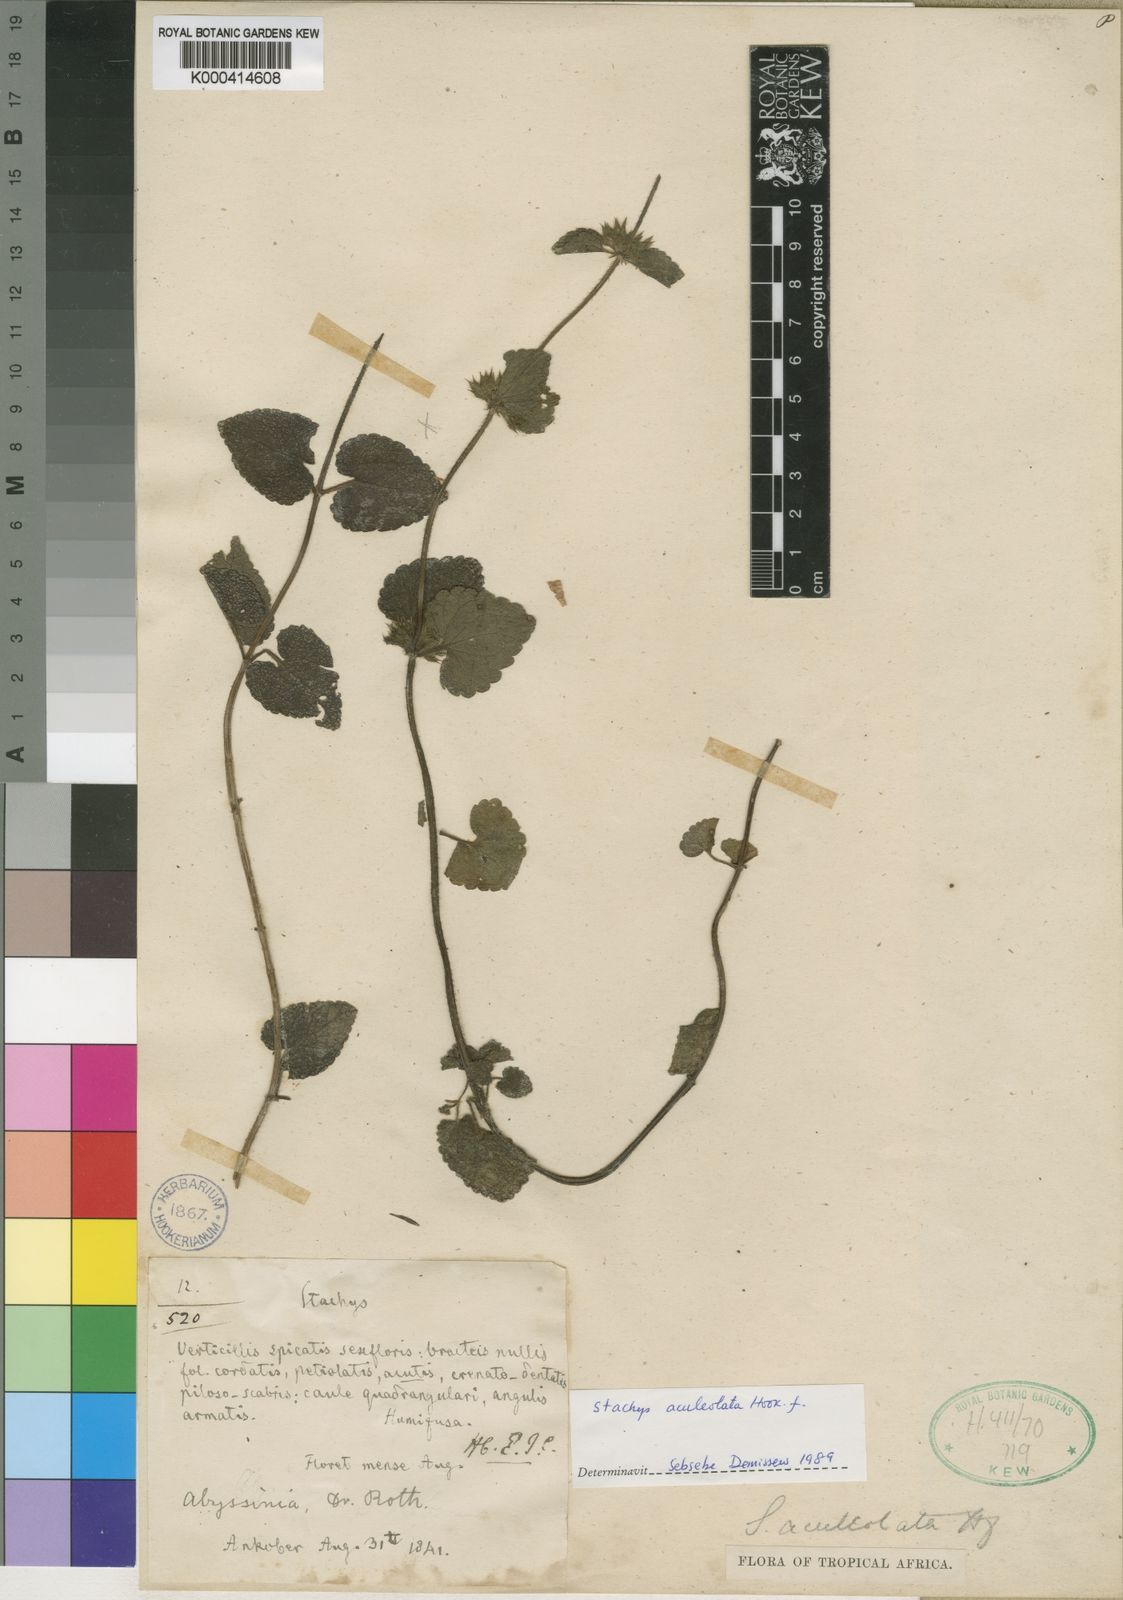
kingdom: Plantae
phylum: Tracheophyta
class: Magnoliopsida
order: Lamiales
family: Lamiaceae
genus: Stachys
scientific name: Stachys aculeolata
